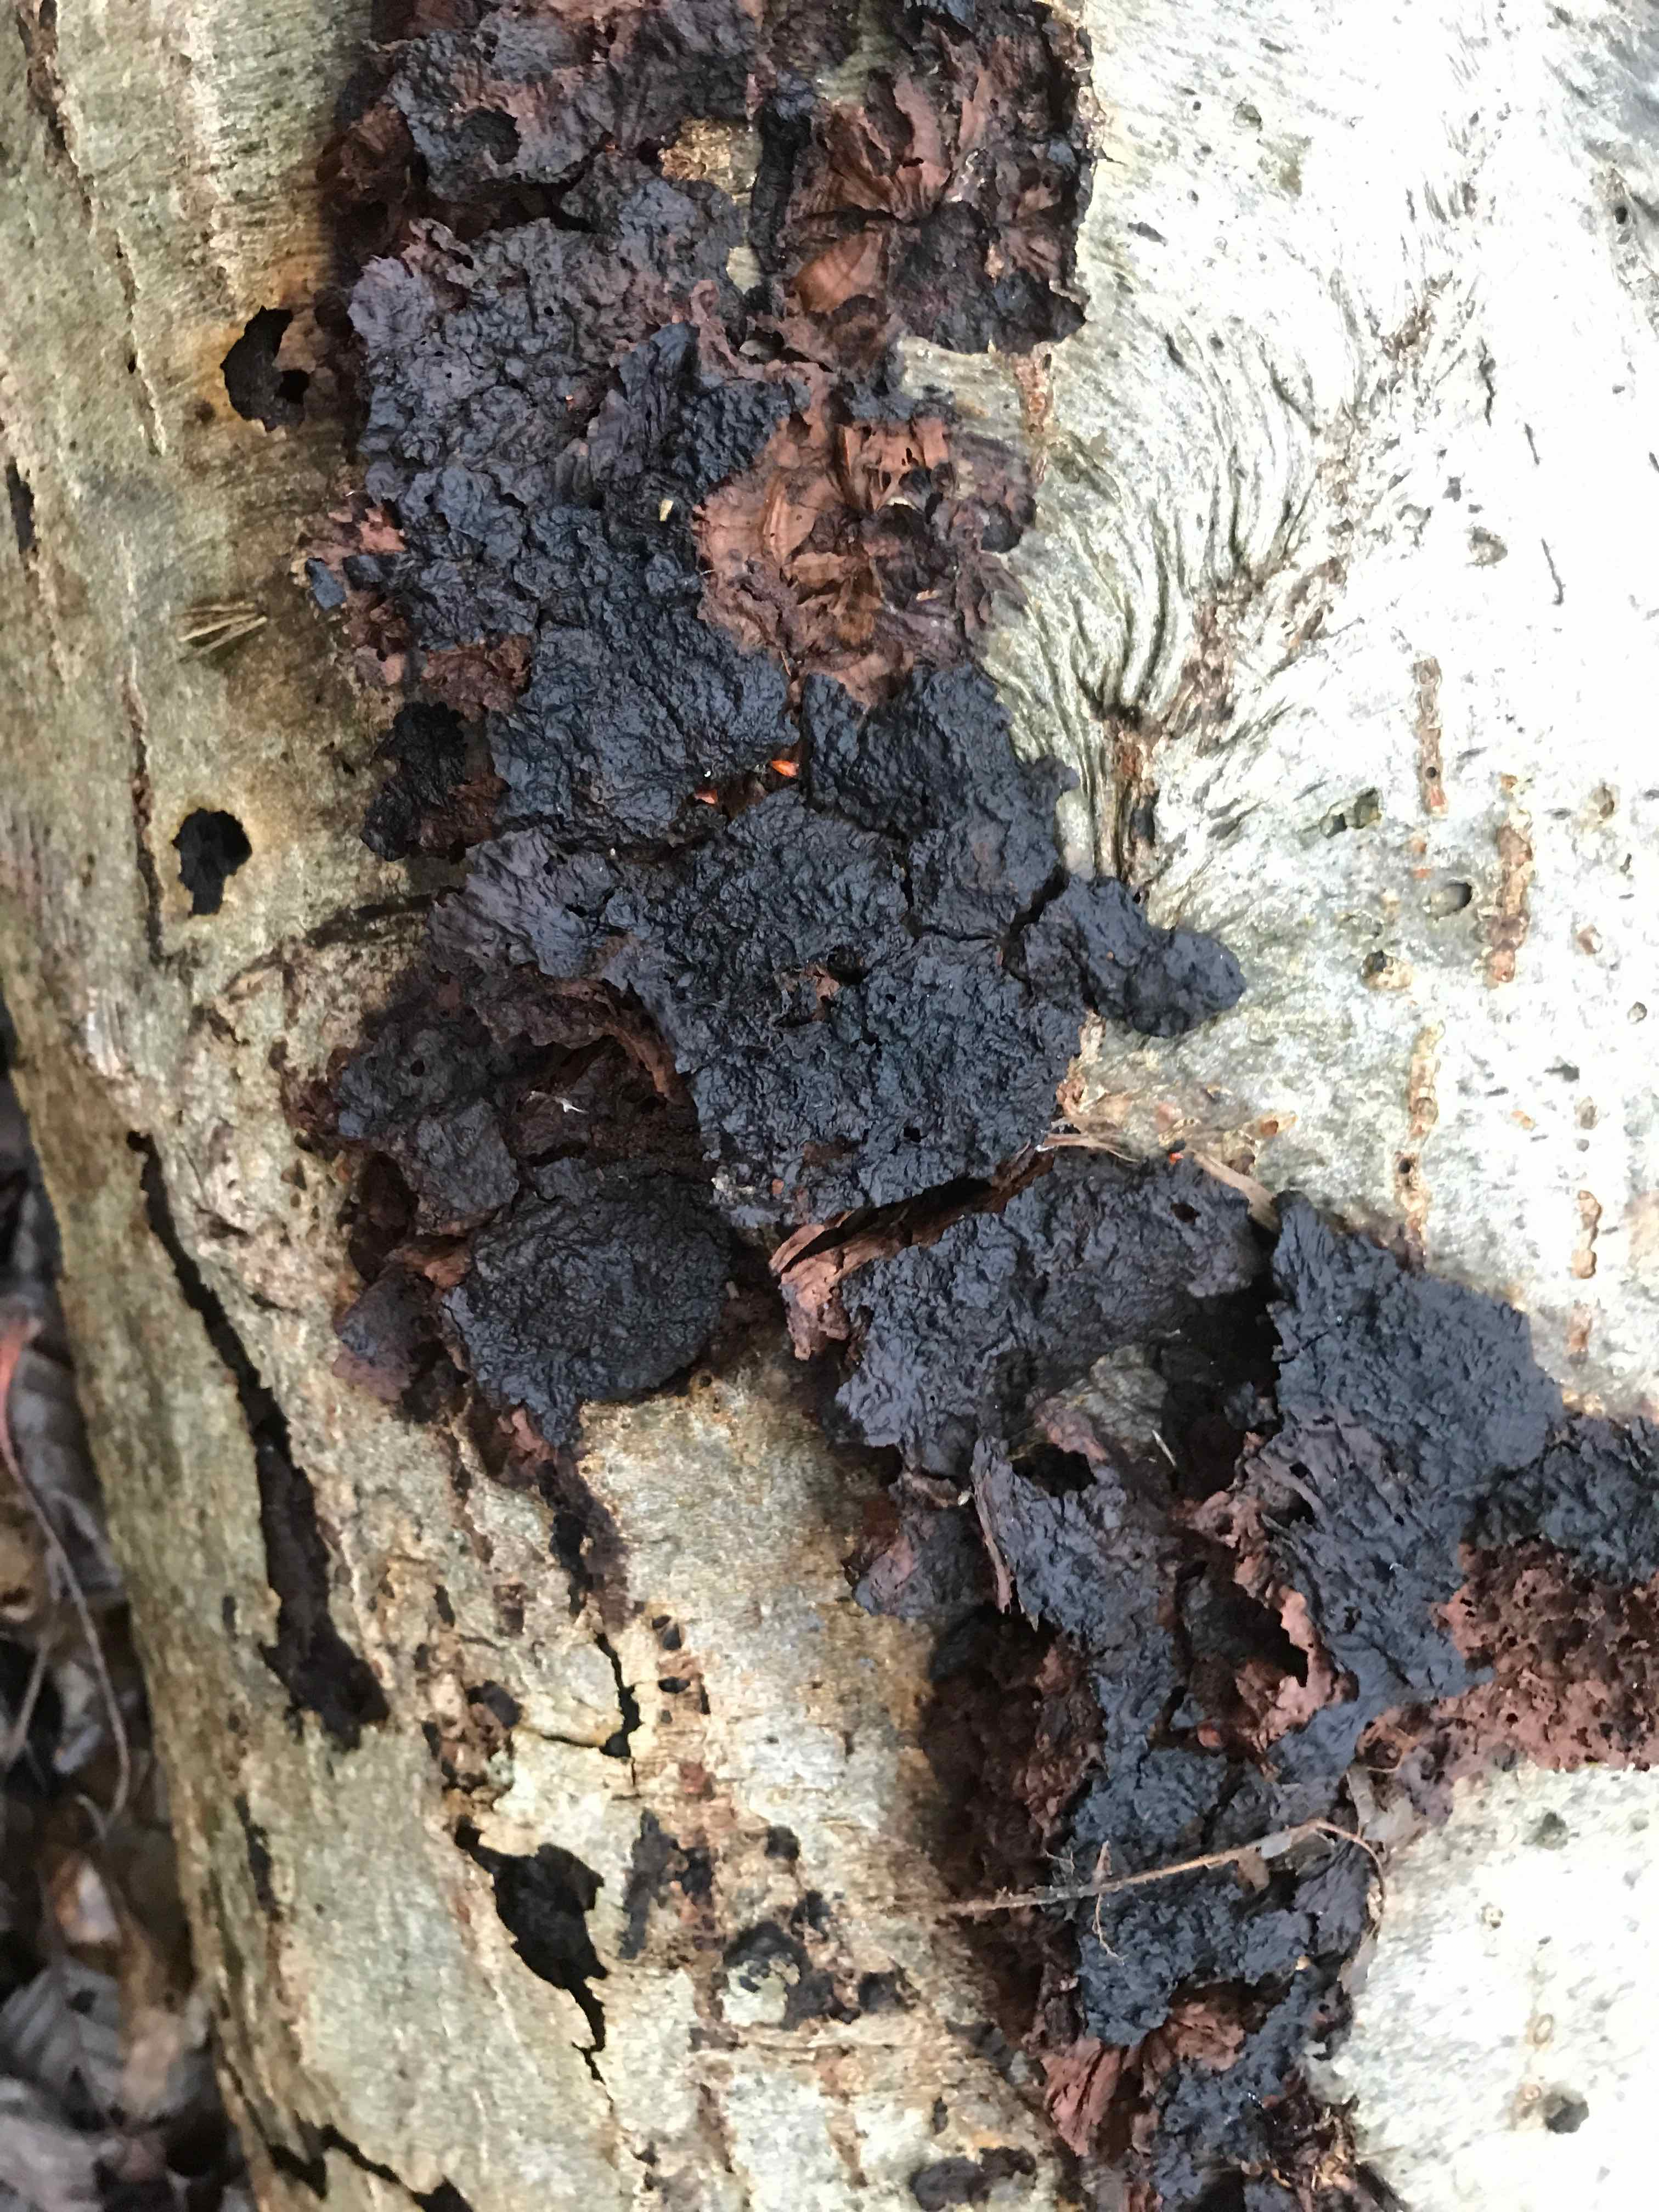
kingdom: Fungi
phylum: Basidiomycota
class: Agaricomycetes
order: Hymenochaetales
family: Hymenochaetaceae
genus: Xanthoporia
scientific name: Xanthoporia radiata
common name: elle-spejlporesvamp
